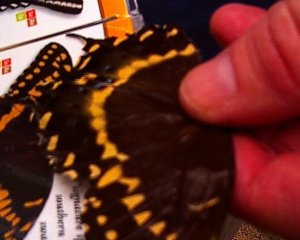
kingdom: Animalia
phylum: Arthropoda
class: Insecta
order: Lepidoptera
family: Papilionidae
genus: Pterourus
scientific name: Pterourus palamedes
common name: Palamedes Swallowtail
